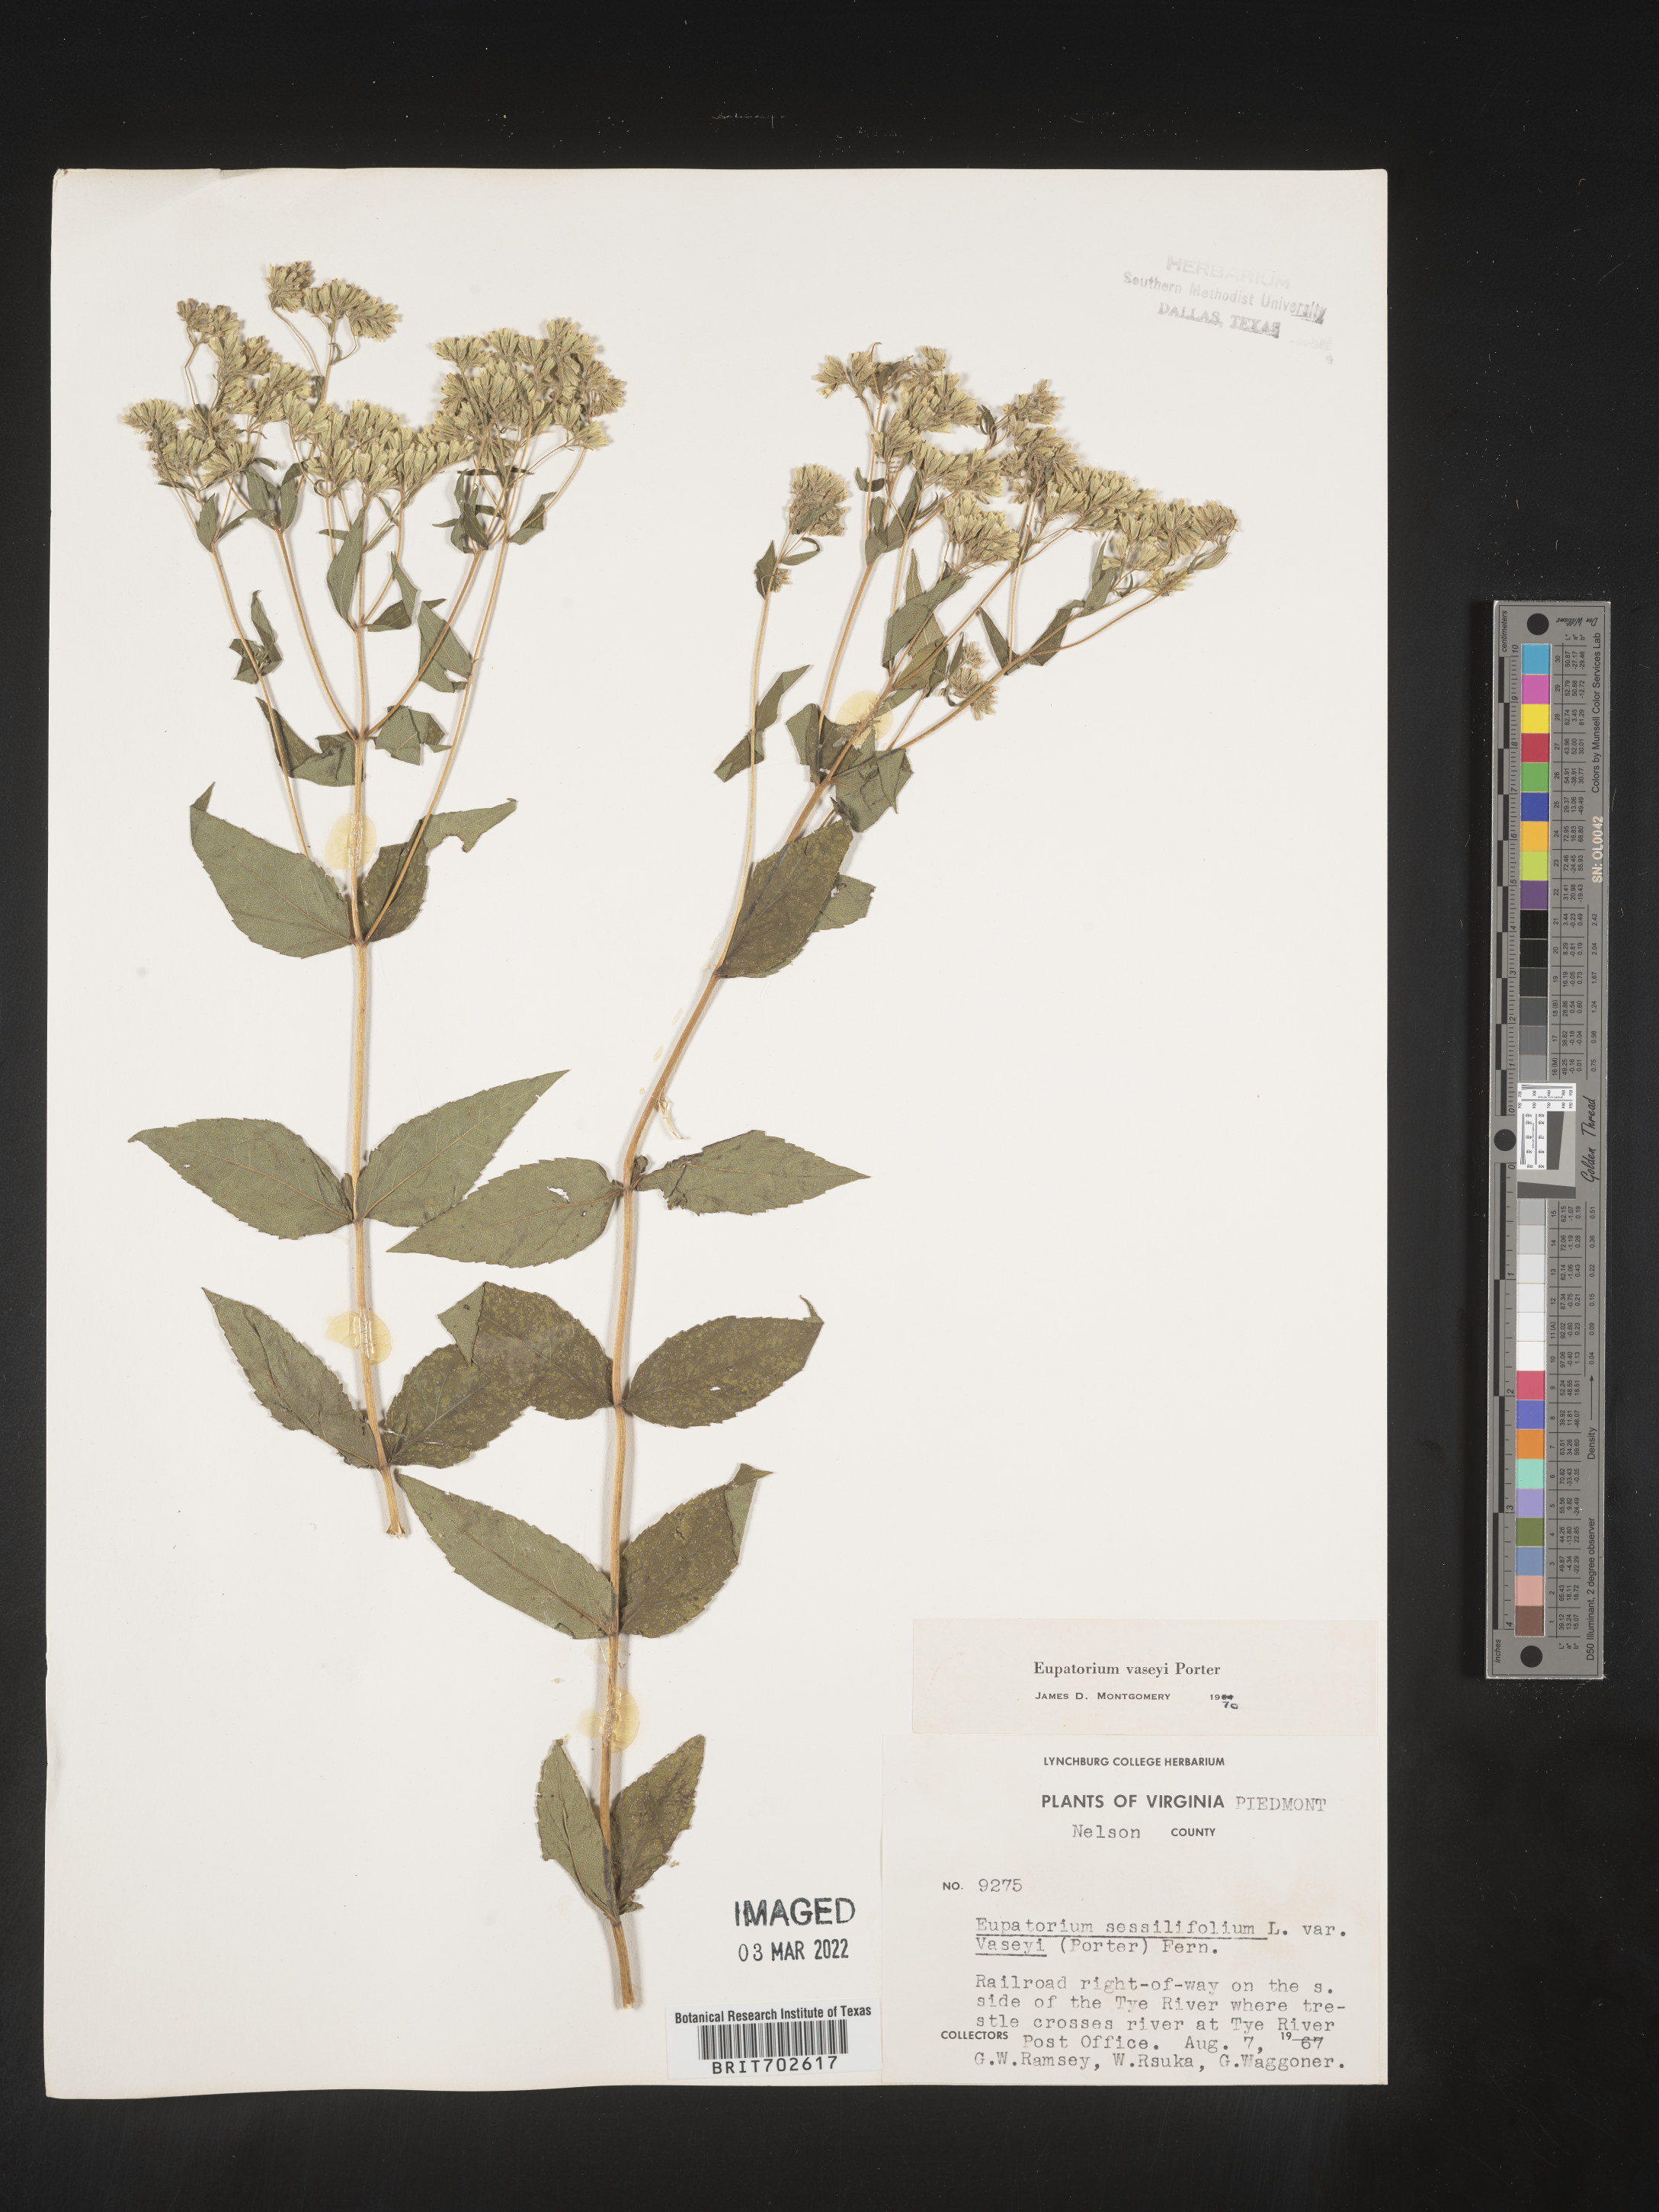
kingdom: Plantae
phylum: Tracheophyta
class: Magnoliopsida
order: Asterales
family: Asteraceae
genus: Eupatorium
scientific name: Eupatorium sessilifolium
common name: Upland boneset
